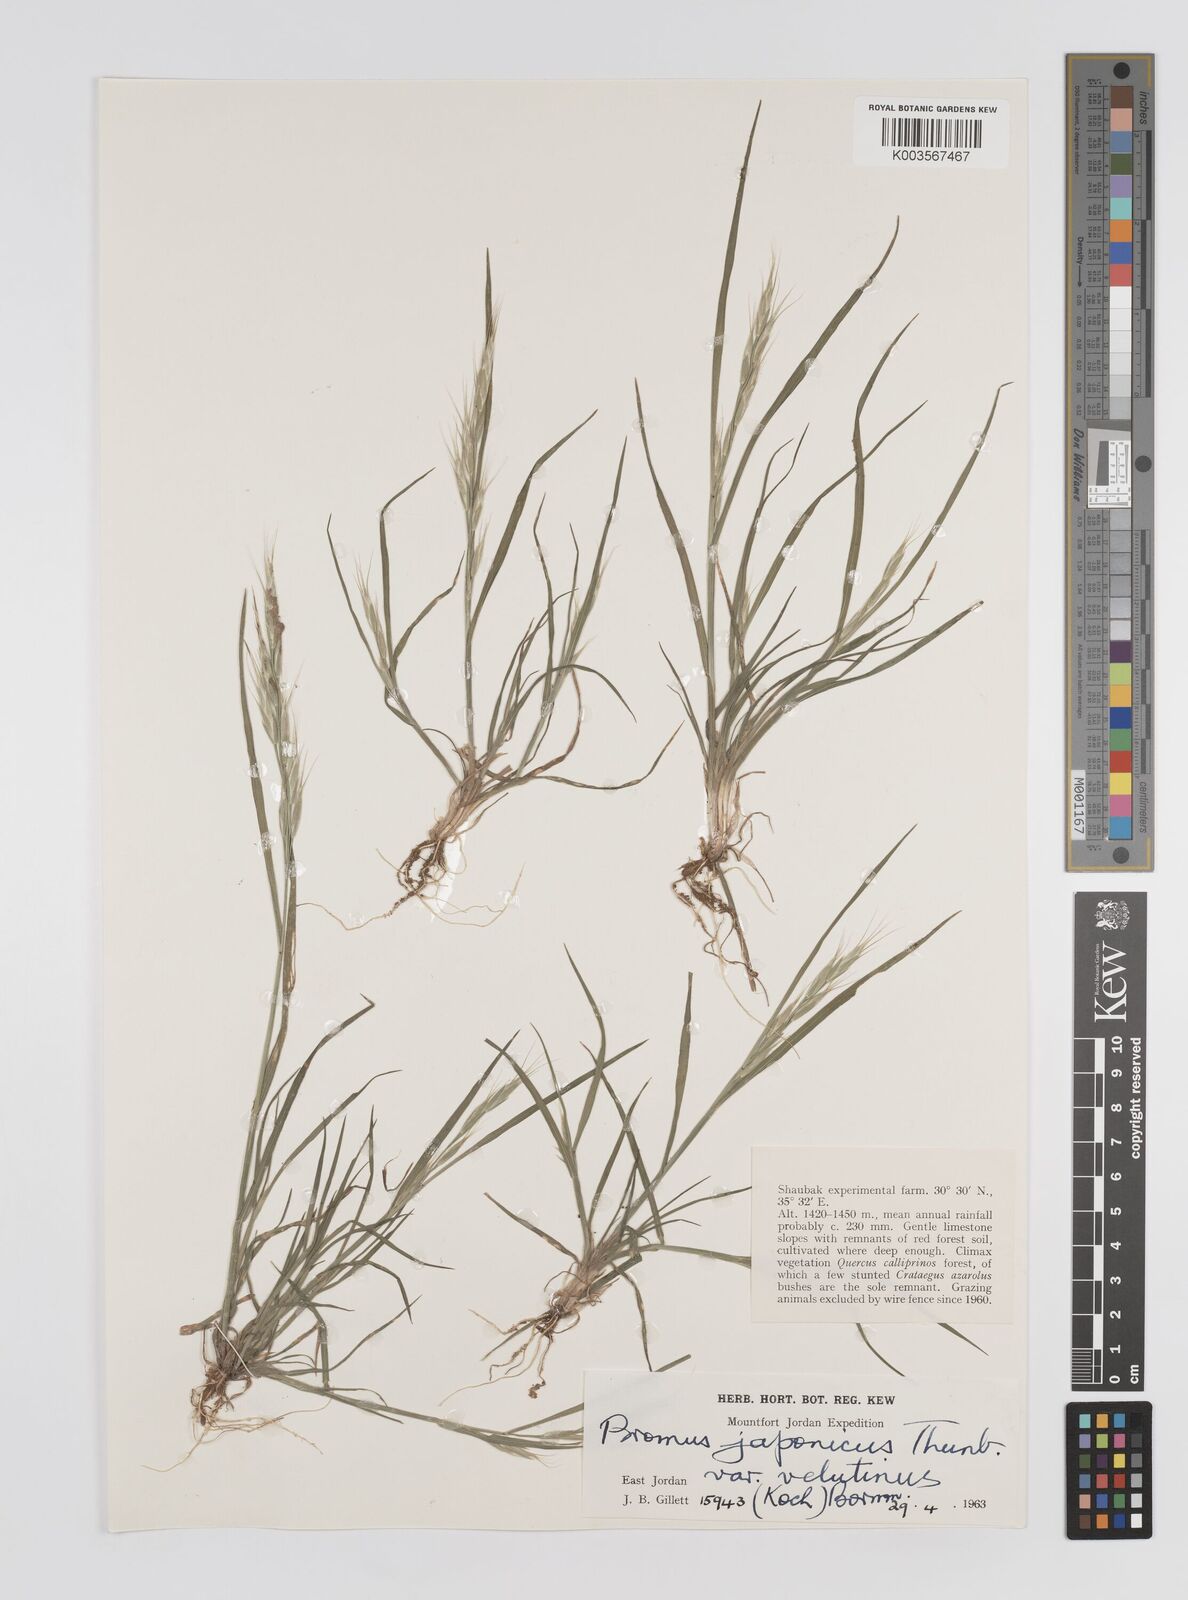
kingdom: Plantae
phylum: Tracheophyta
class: Liliopsida
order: Poales
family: Poaceae
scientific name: Poaceae
